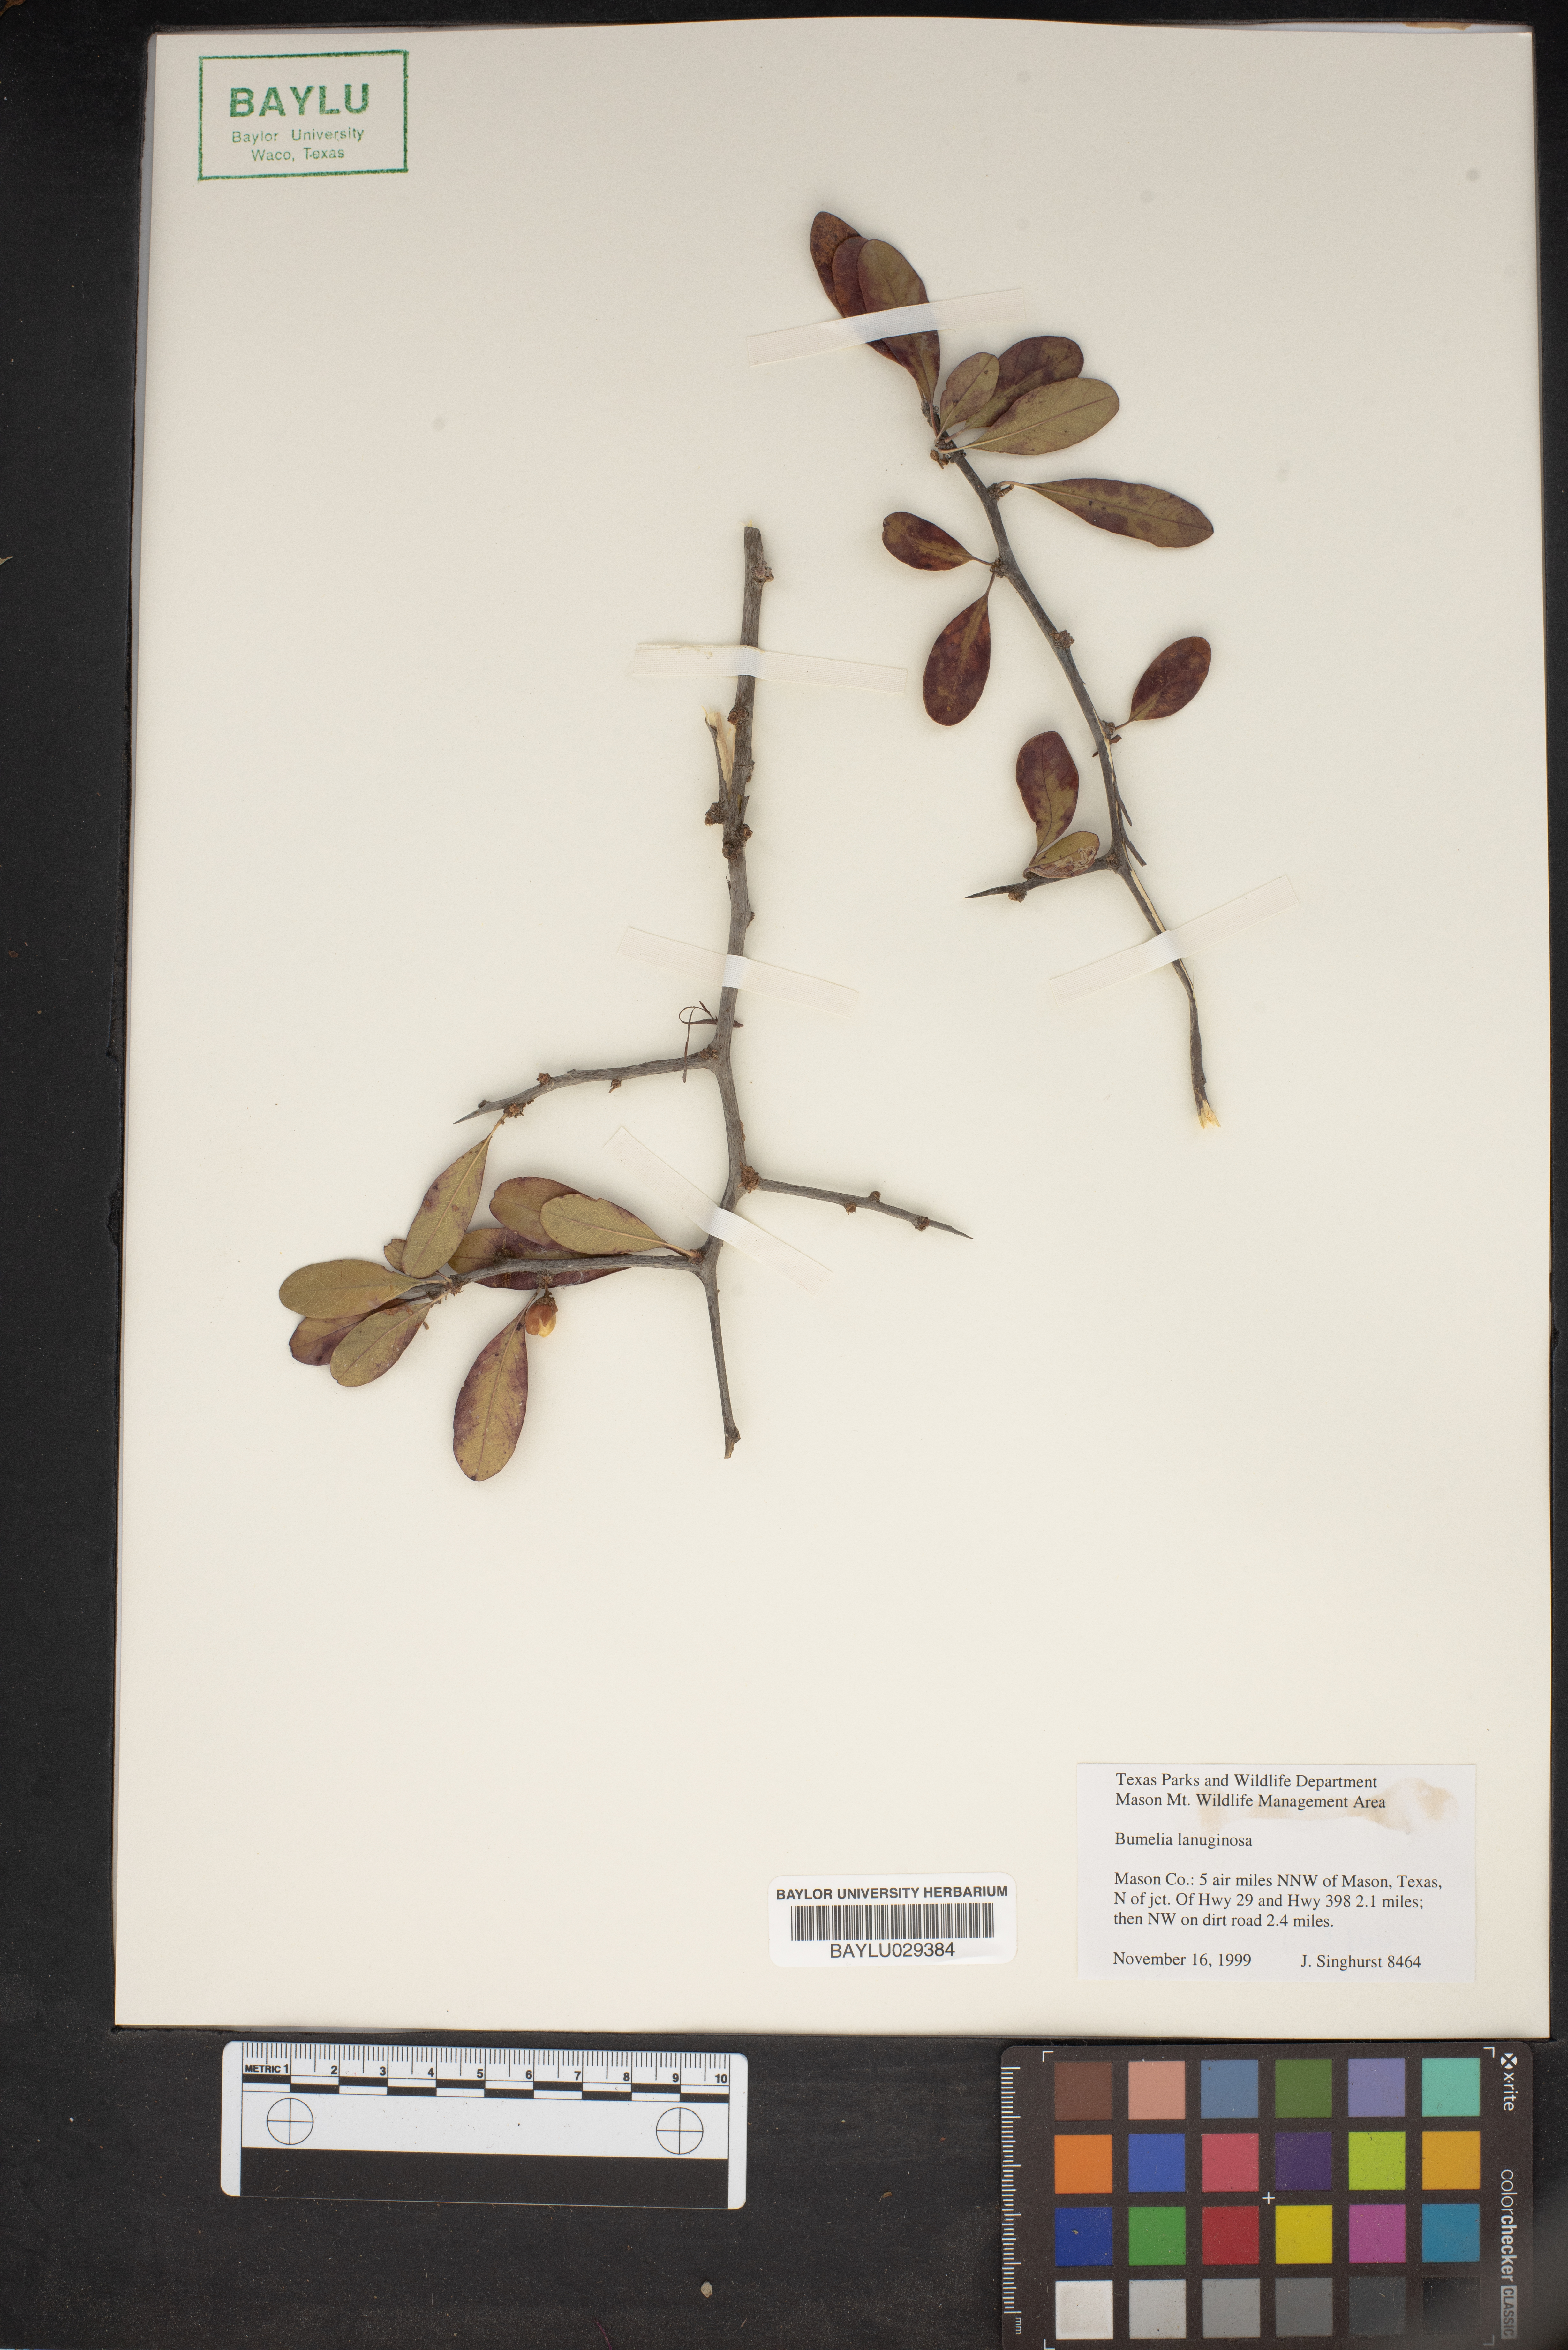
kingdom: Plantae
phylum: Tracheophyta
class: Magnoliopsida
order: Ericales
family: Sapotaceae
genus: Sideroxylon
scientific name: Sideroxylon lanuginosum
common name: Chittamwood
